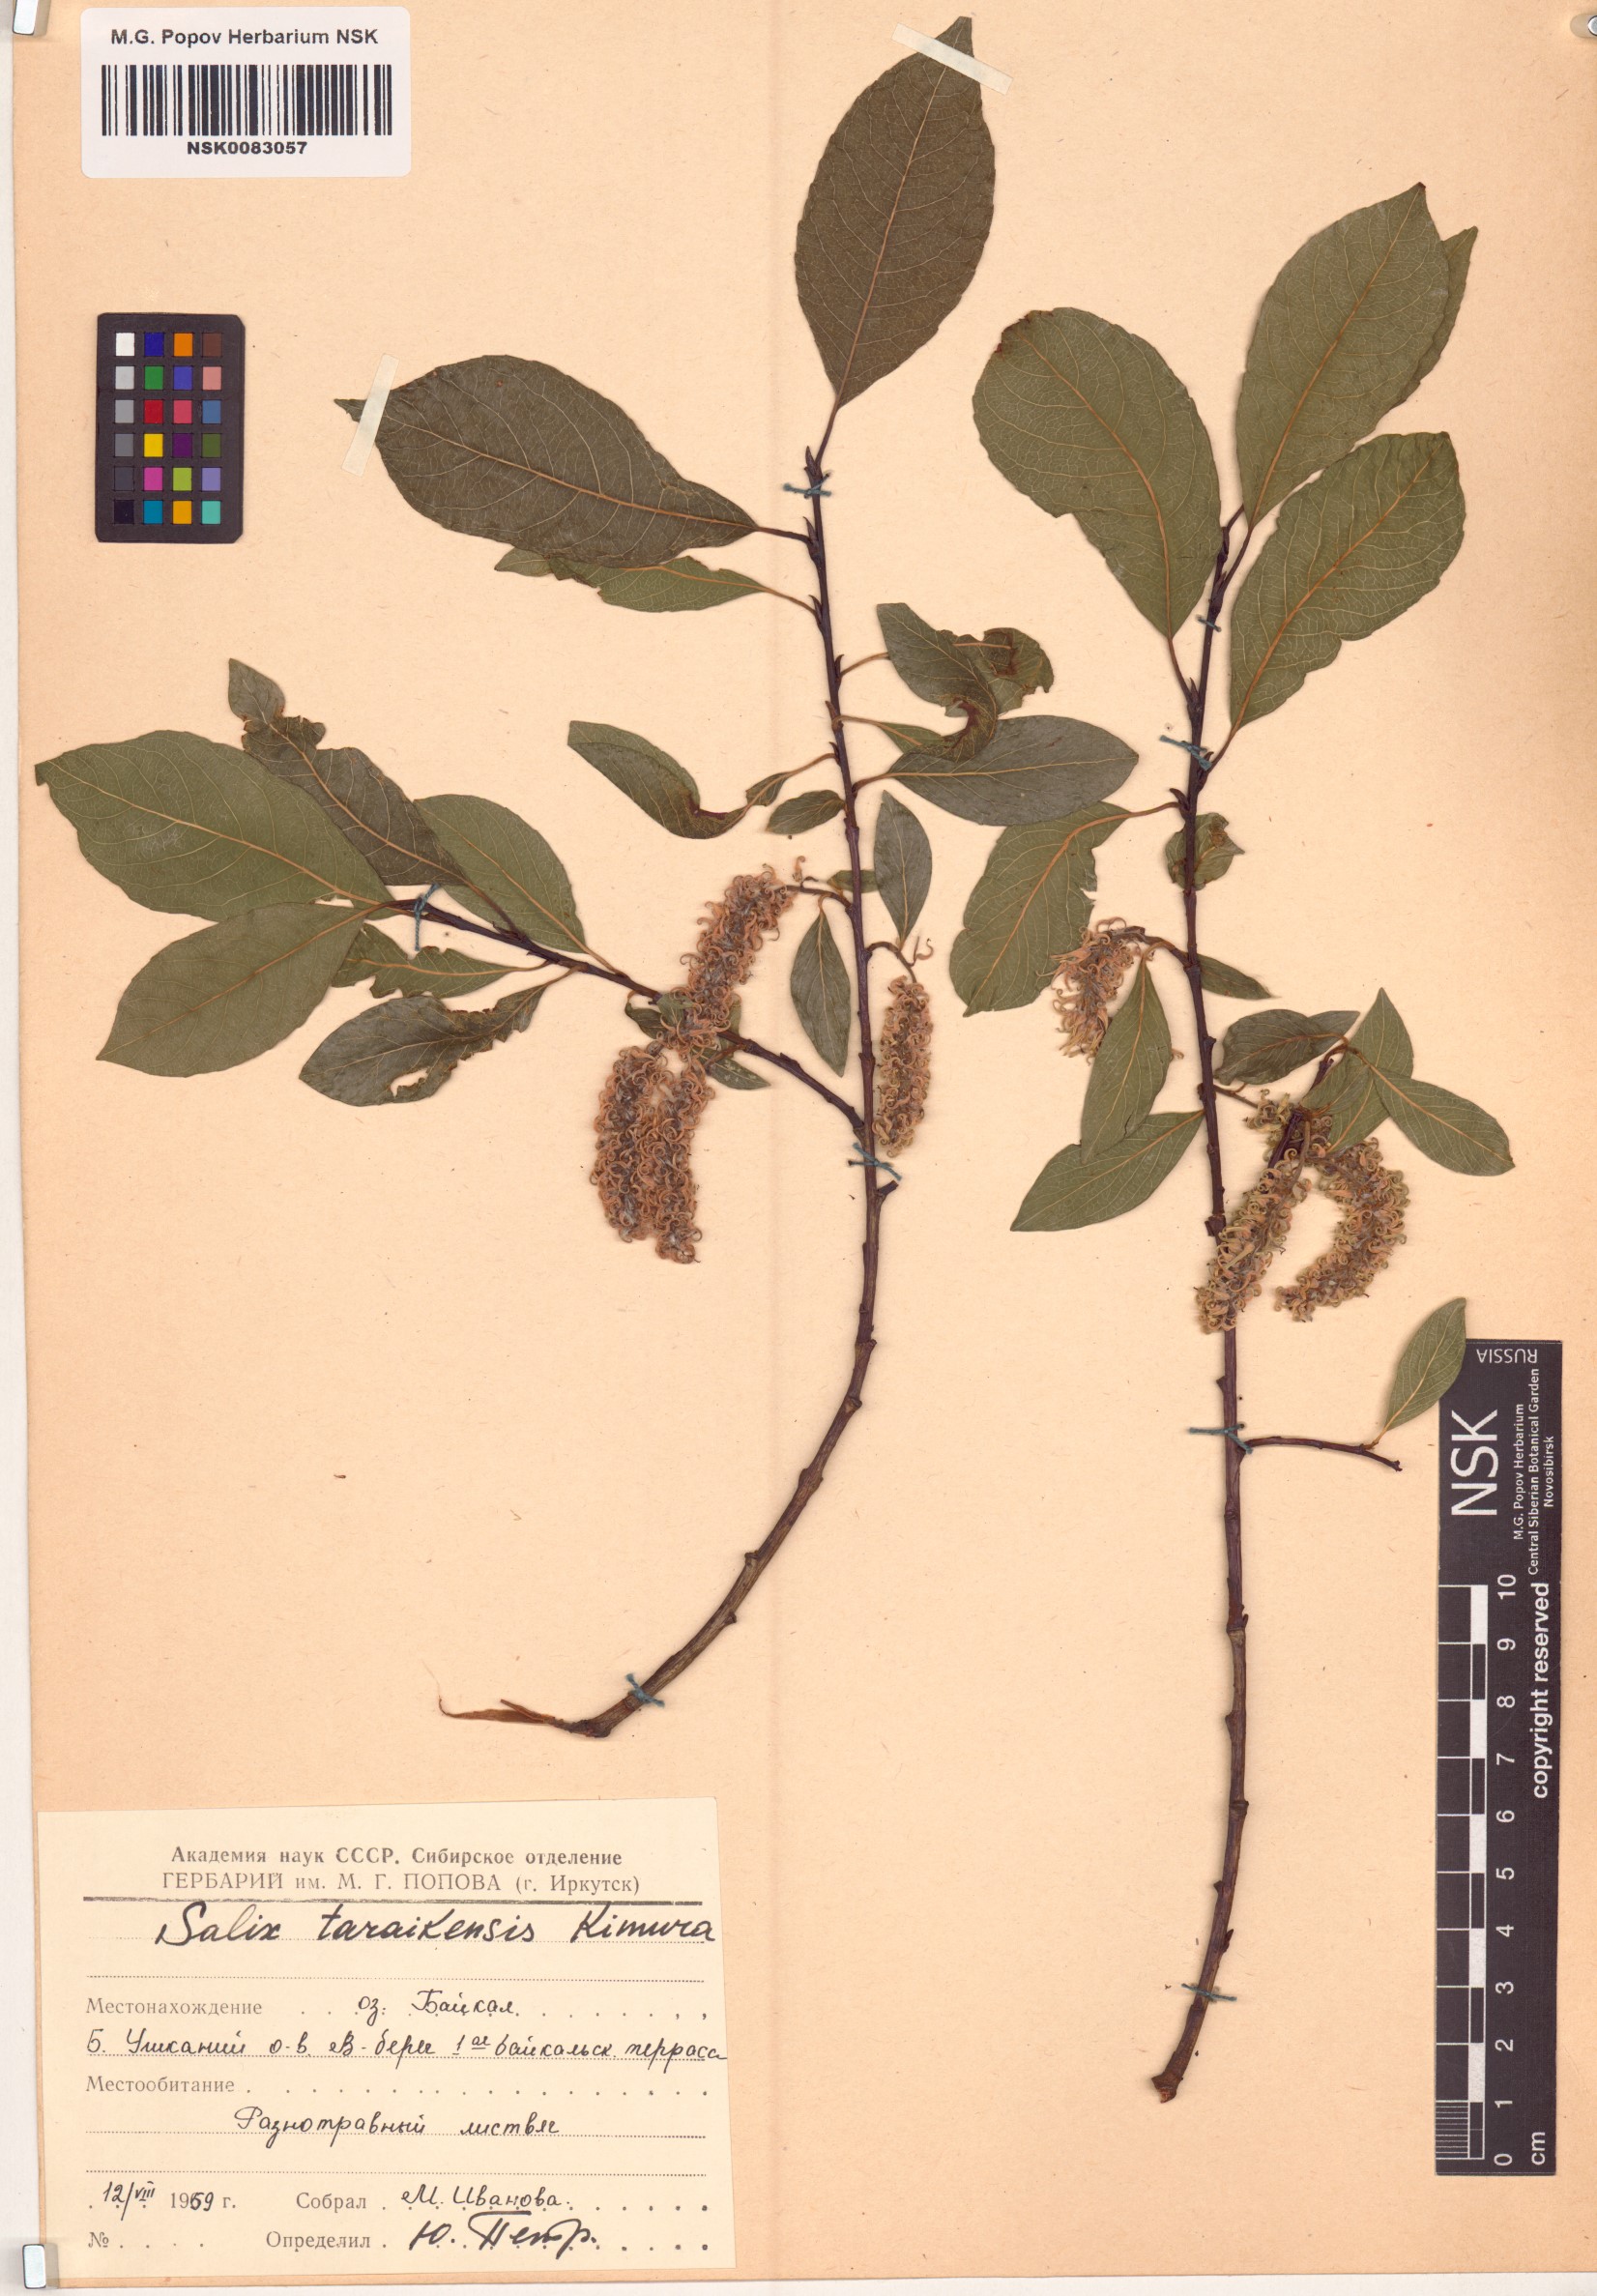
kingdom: Plantae
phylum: Tracheophyta
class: Magnoliopsida
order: Malpighiales
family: Salicaceae
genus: Salix
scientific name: Salix taraikensis
